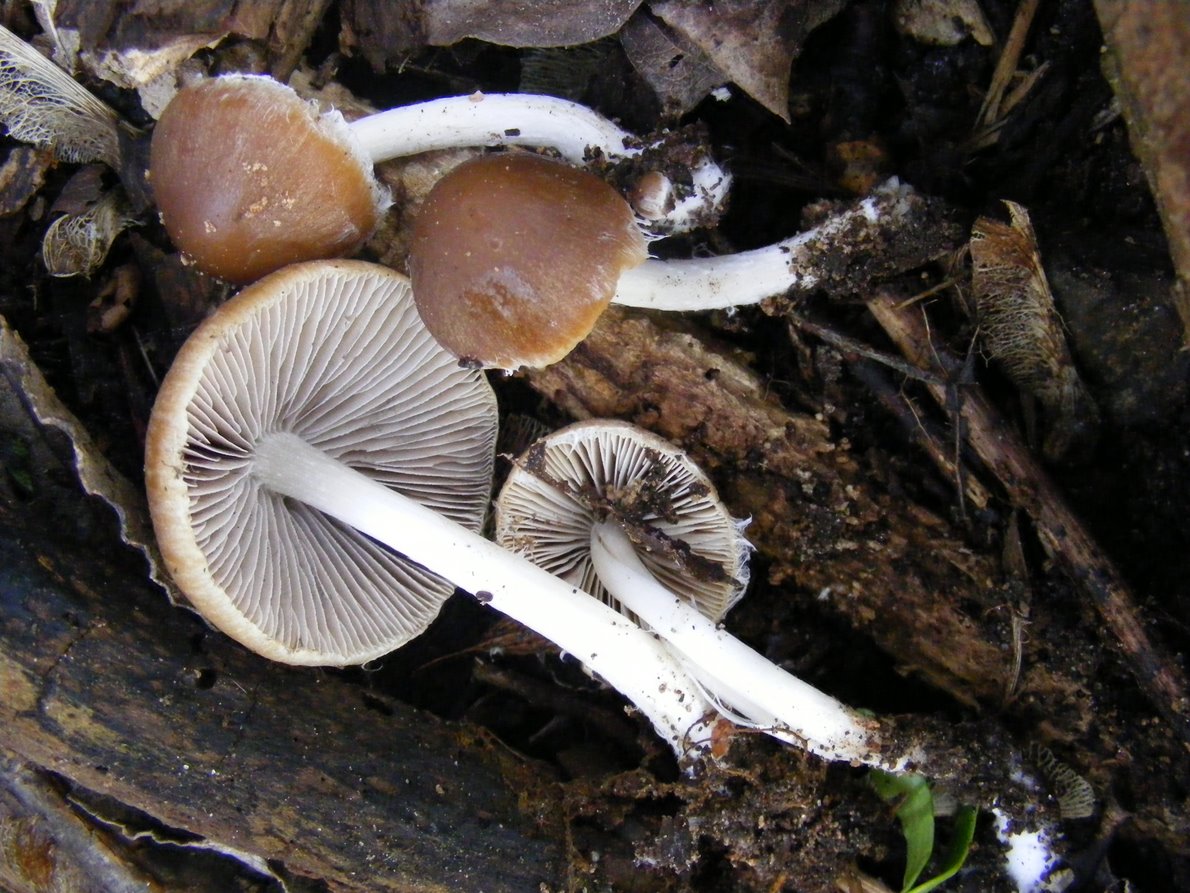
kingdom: Fungi
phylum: Basidiomycota
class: Agaricomycetes
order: Agaricales
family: Psathyrellaceae
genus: Psathyrella
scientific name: Psathyrella spadiceogrisea
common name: gråbrun mørkhat
